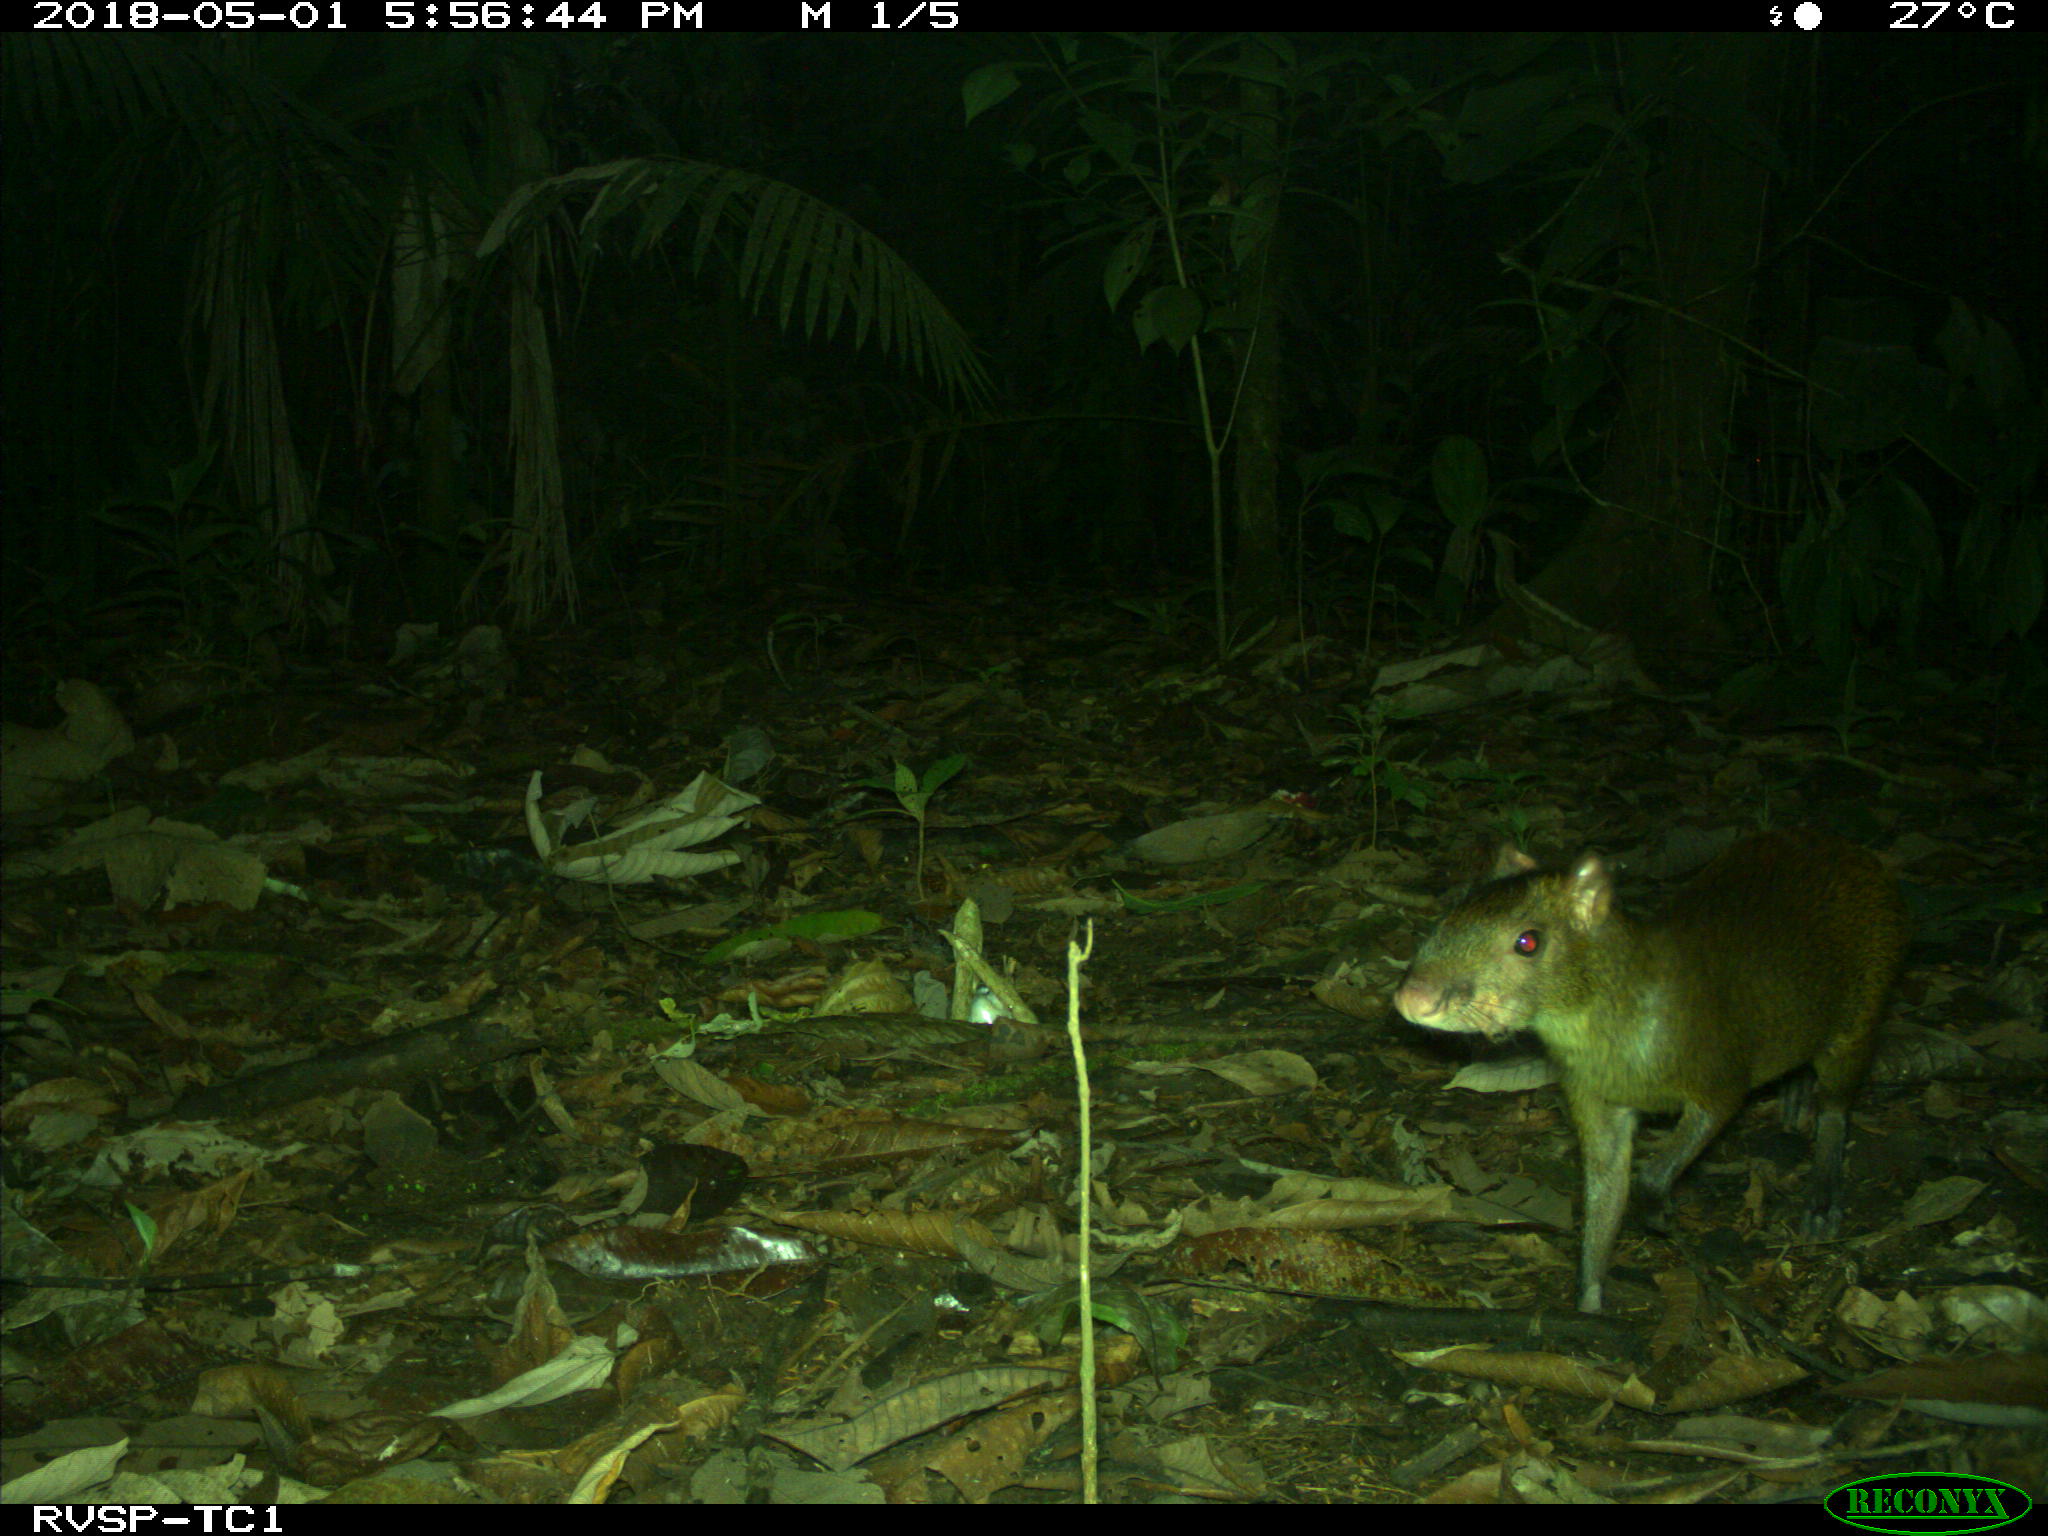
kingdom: Animalia
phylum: Chordata
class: Mammalia
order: Rodentia
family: Dasyproctidae
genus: Dasyprocta
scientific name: Dasyprocta punctata
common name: Central american agouti
